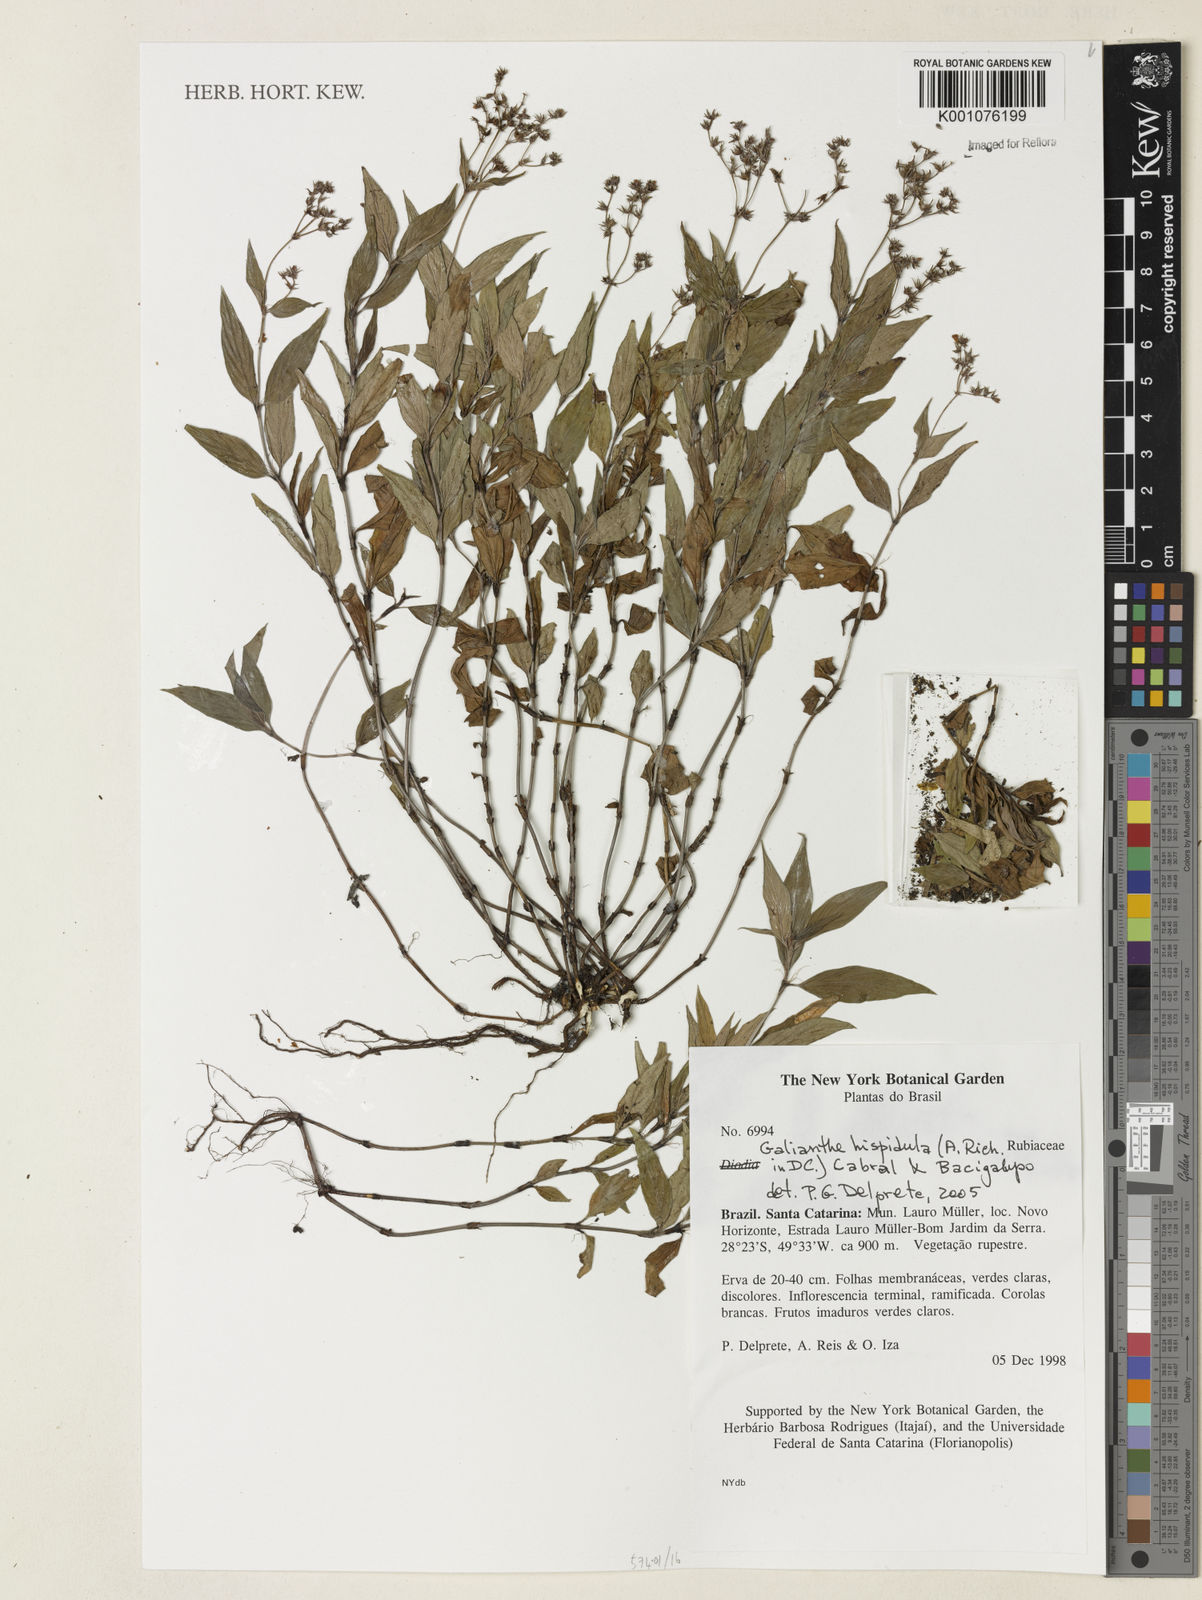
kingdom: Plantae
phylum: Tracheophyta
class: Magnoliopsida
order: Gentianales
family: Rubiaceae
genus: Spermacoce
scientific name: Spermacoce
